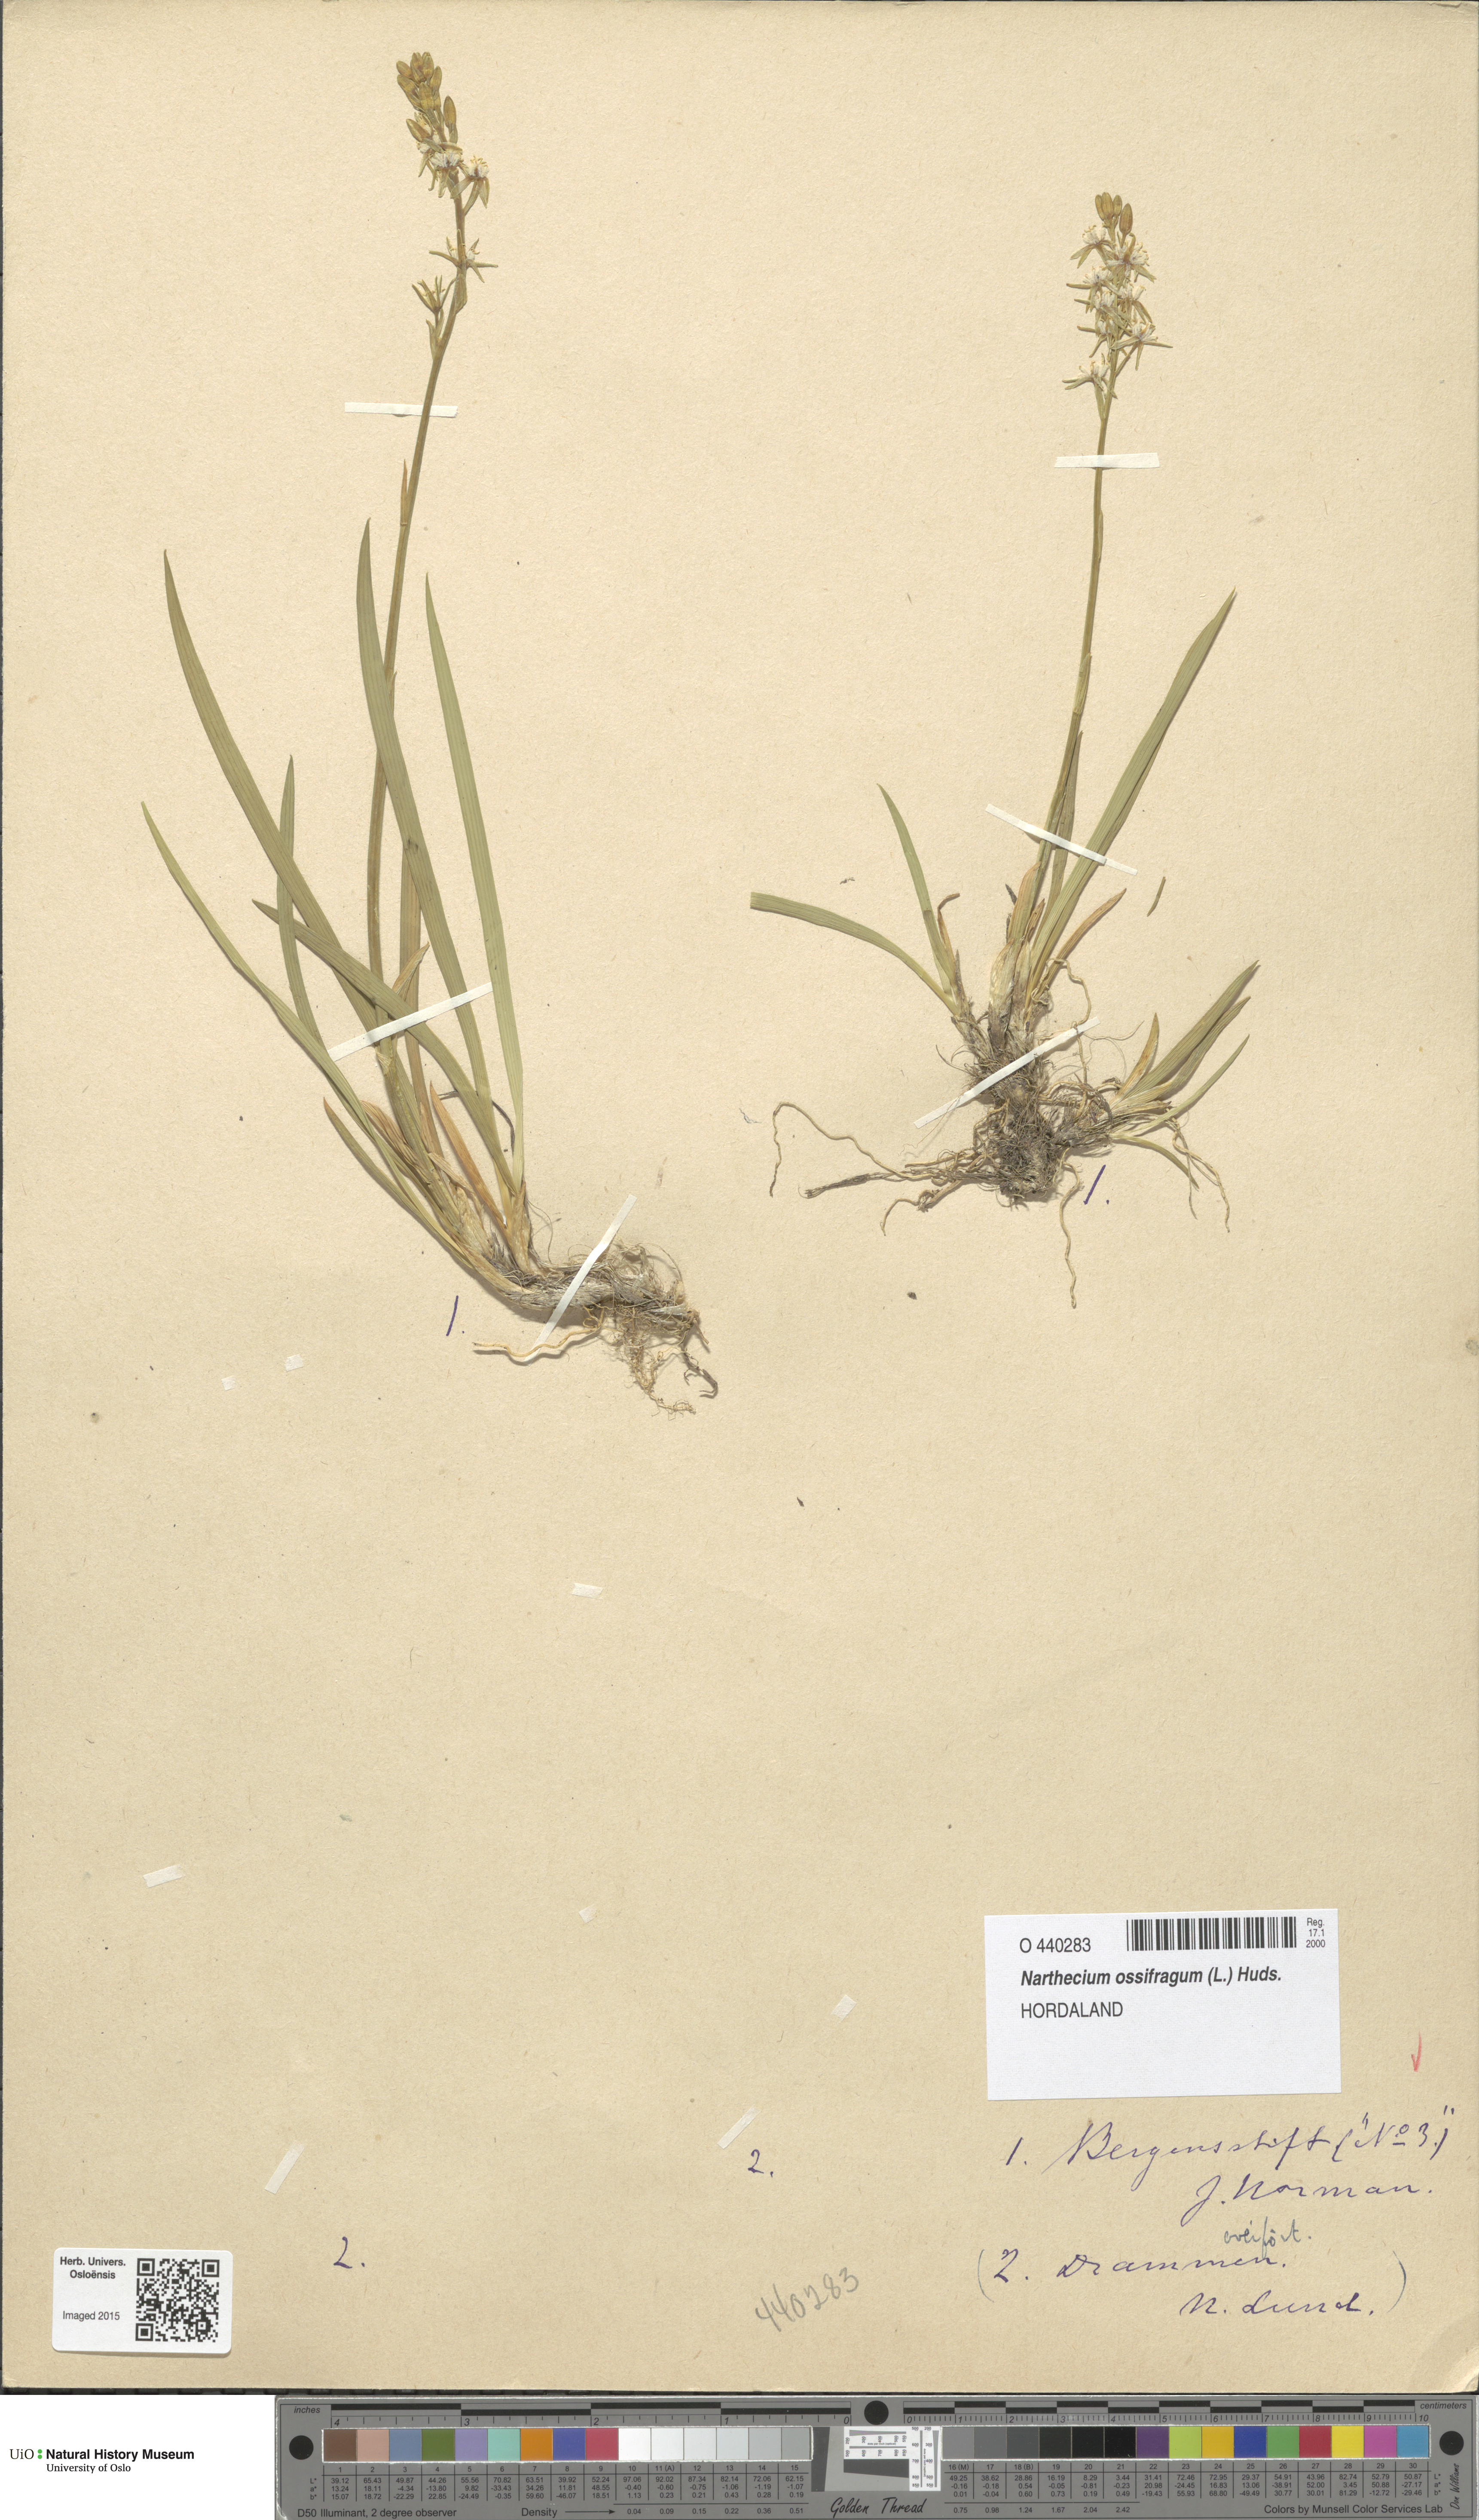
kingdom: Plantae
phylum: Tracheophyta
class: Liliopsida
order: Dioscoreales
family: Nartheciaceae
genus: Narthecium
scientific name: Narthecium ossifragum
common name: Bog asphodel
